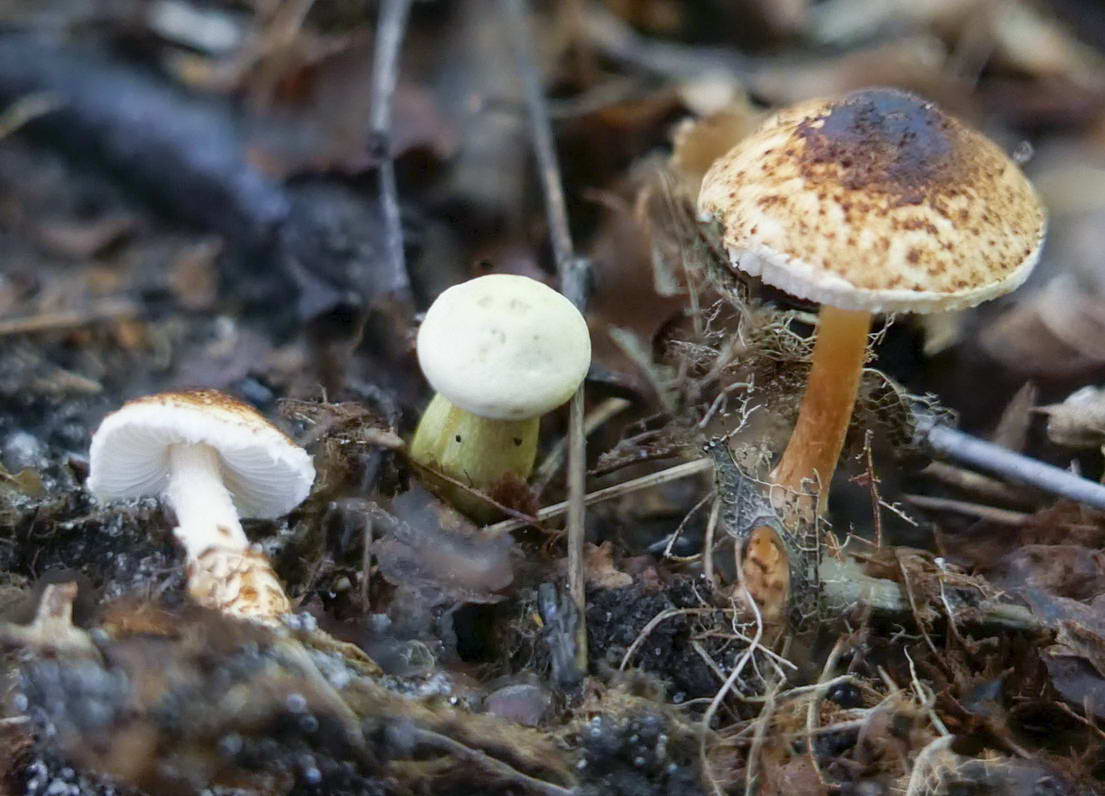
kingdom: Fungi
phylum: Basidiomycota
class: Agaricomycetes
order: Agaricales
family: Agaricaceae
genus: Lepiota
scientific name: Lepiota castanea
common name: kastaniebrun parasolhat
